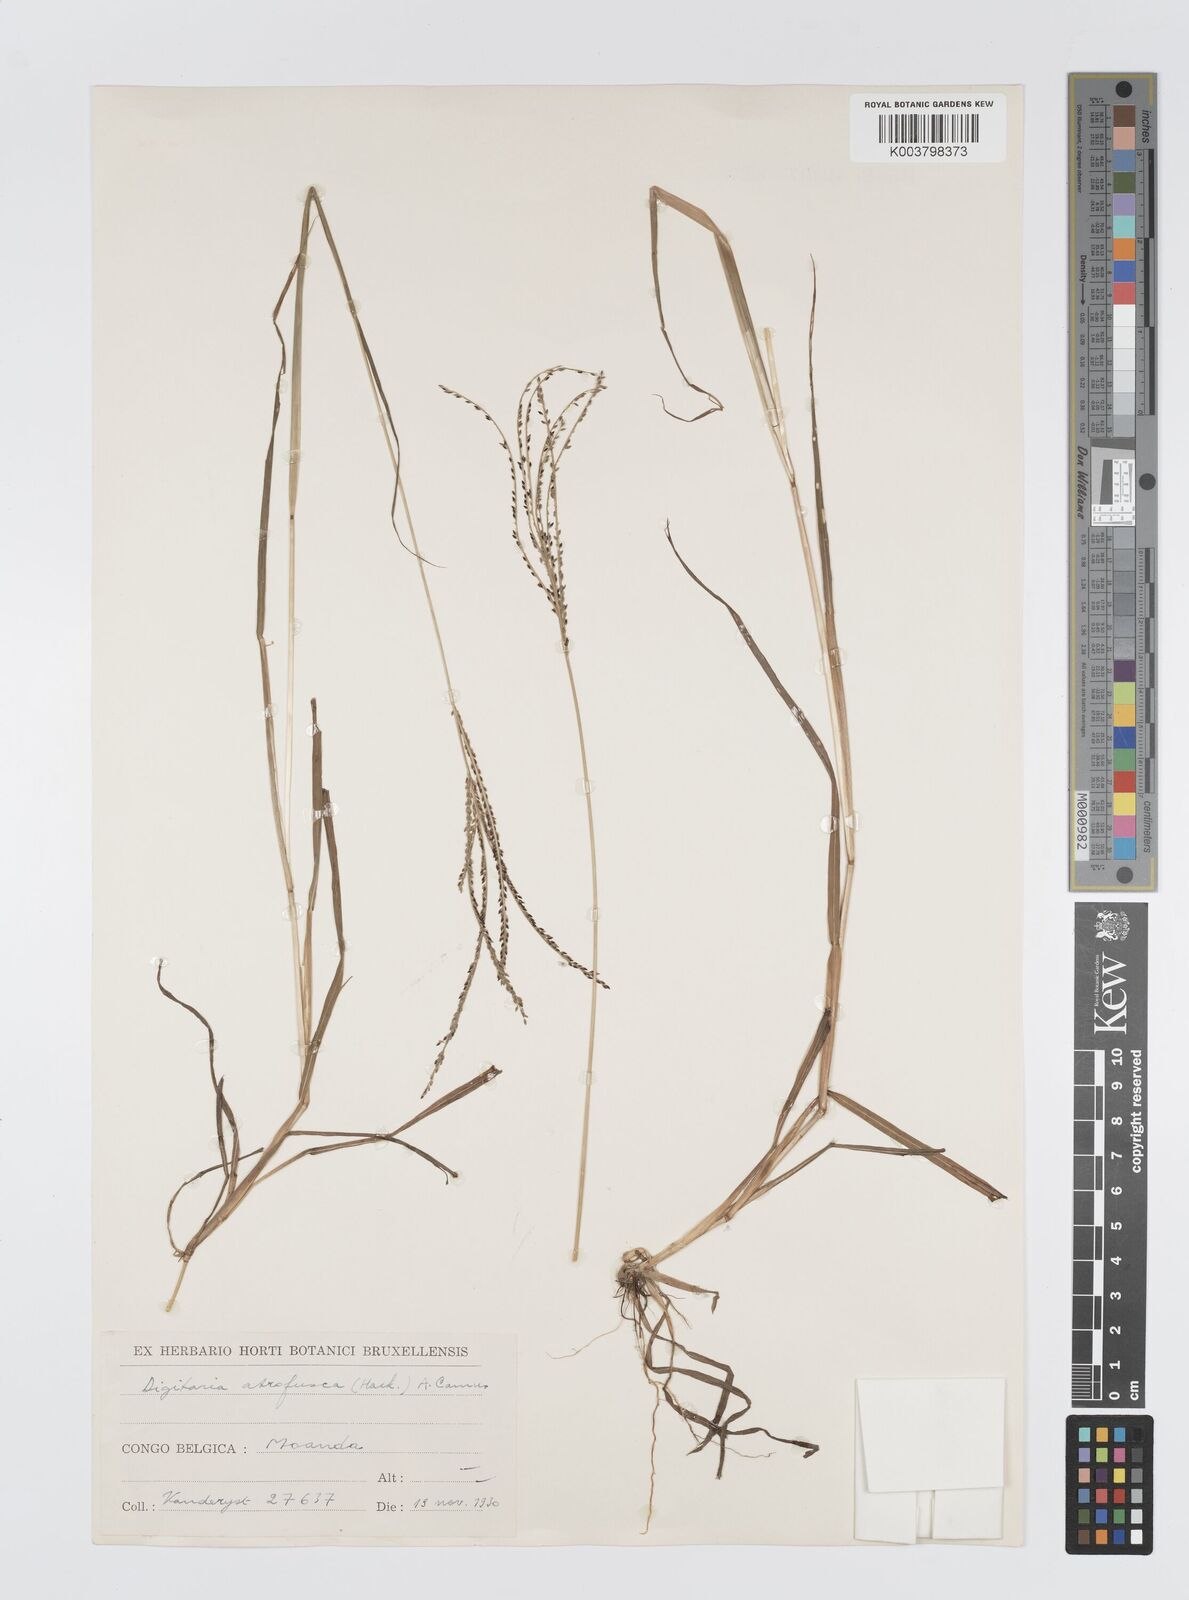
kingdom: Plantae
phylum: Tracheophyta
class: Liliopsida
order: Poales
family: Poaceae
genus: Digitaria
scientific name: Digitaria atrofusca
